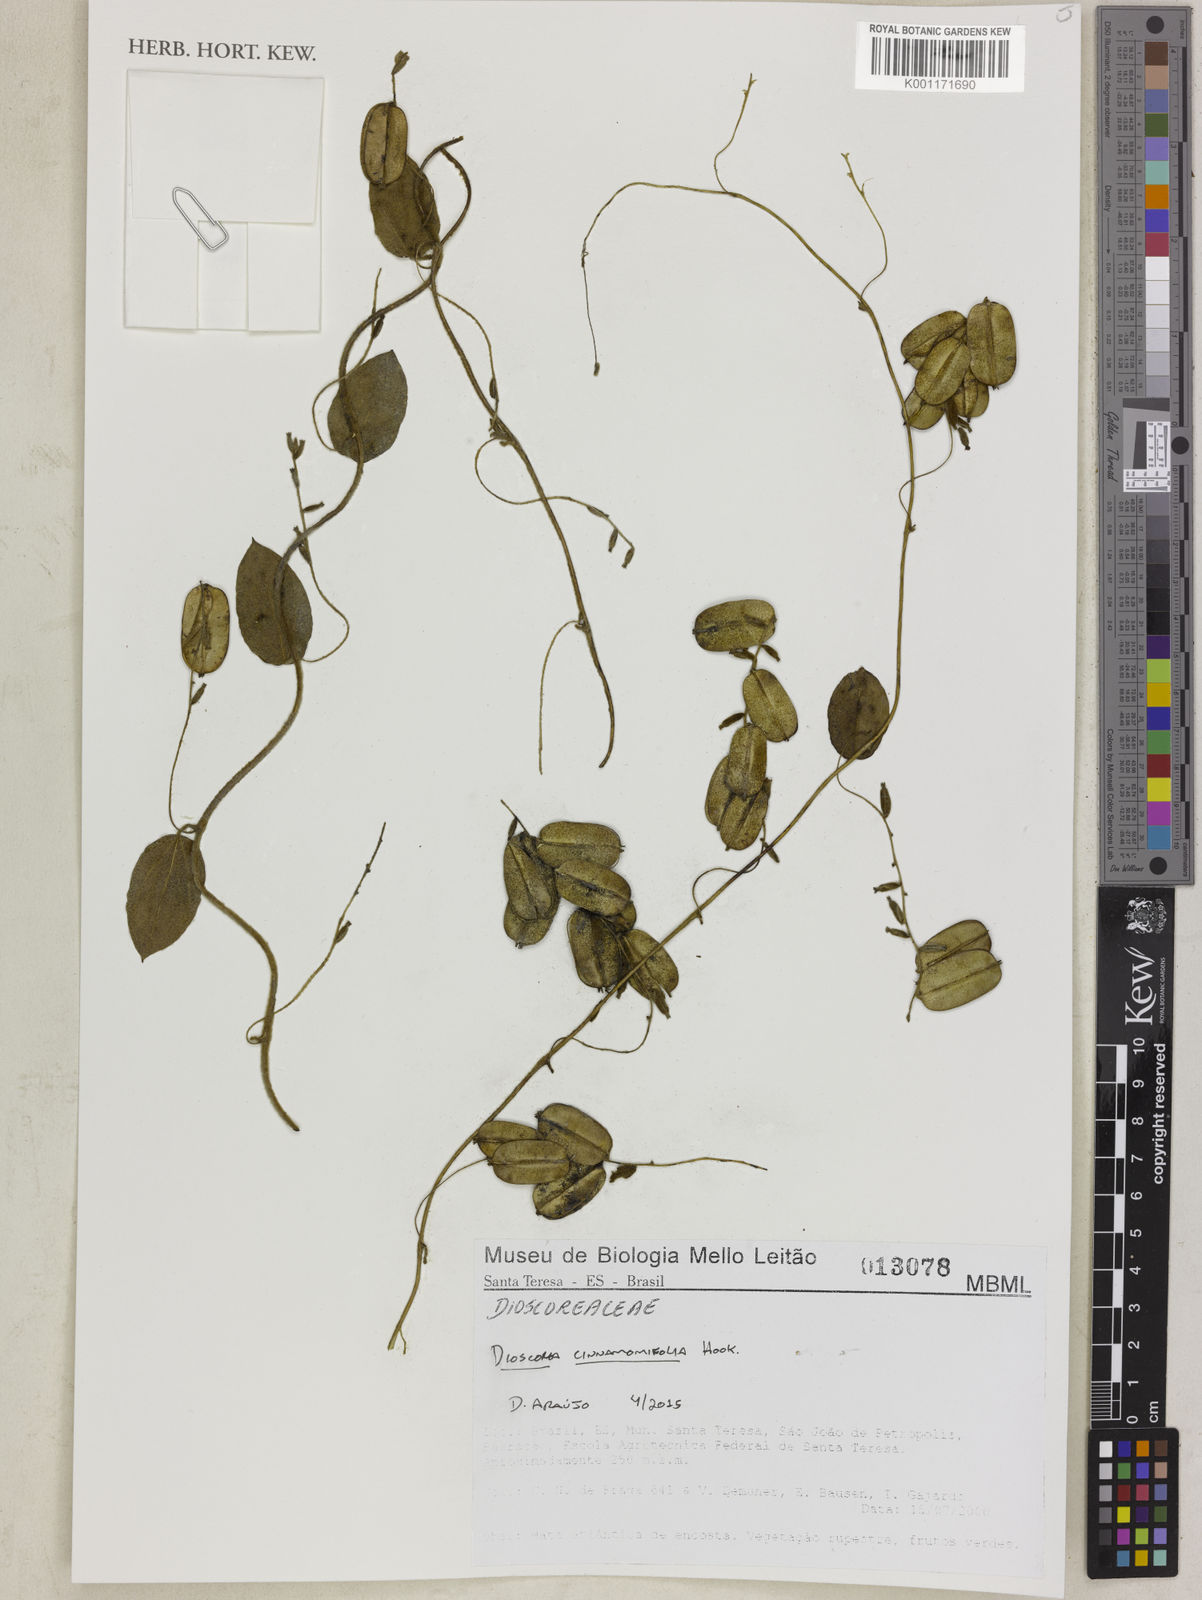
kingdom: Plantae
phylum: Tracheophyta
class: Liliopsida
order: Dioscoreales
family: Dioscoreaceae
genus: Dioscorea
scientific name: Dioscorea cinnamomifolia
